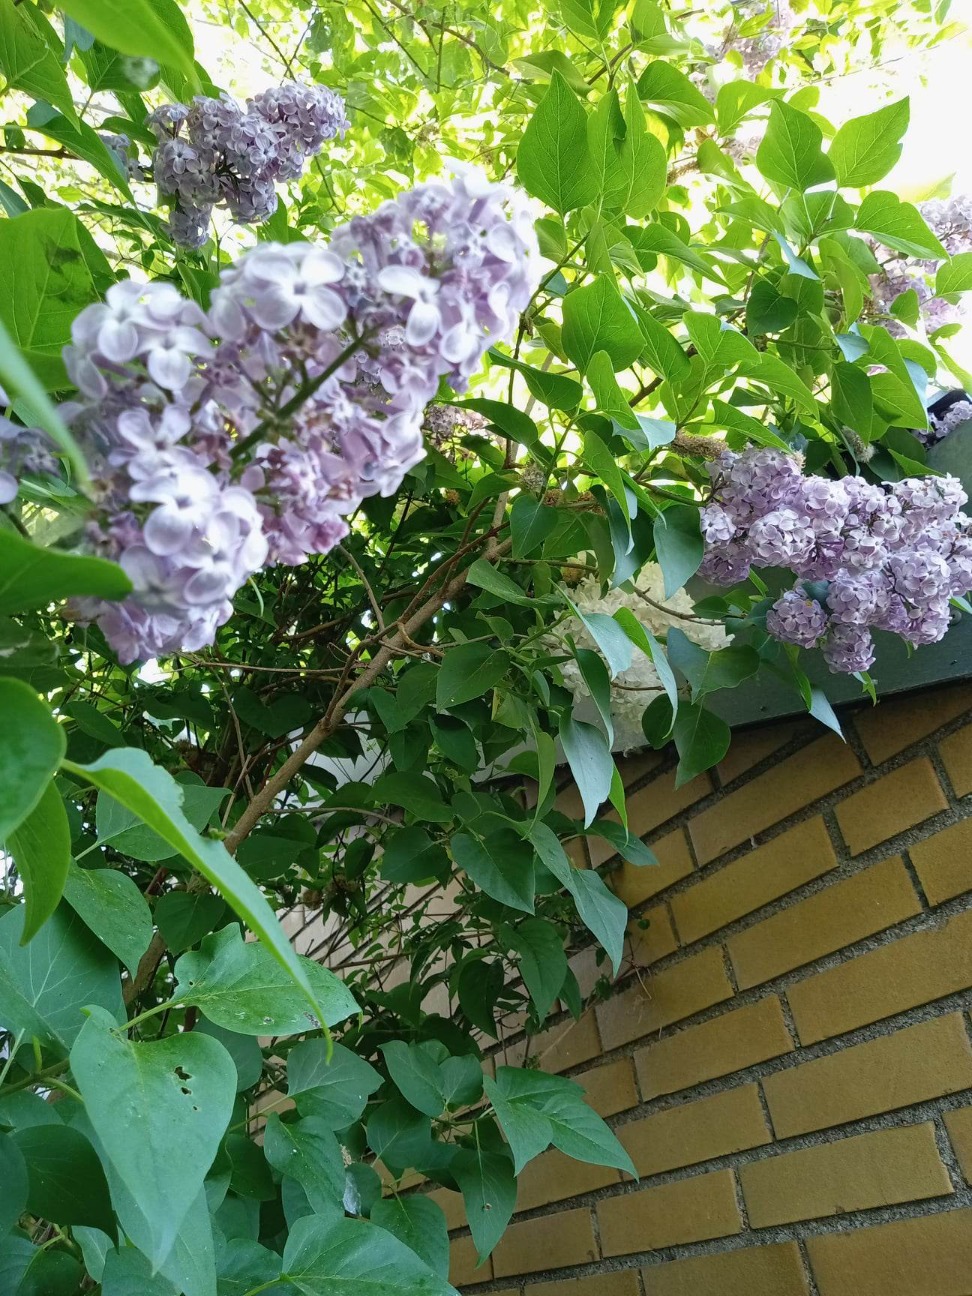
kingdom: Plantae
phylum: Tracheophyta
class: Magnoliopsida
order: Lamiales
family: Oleaceae
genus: Syringa
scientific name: Syringa vulgaris
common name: Syren
